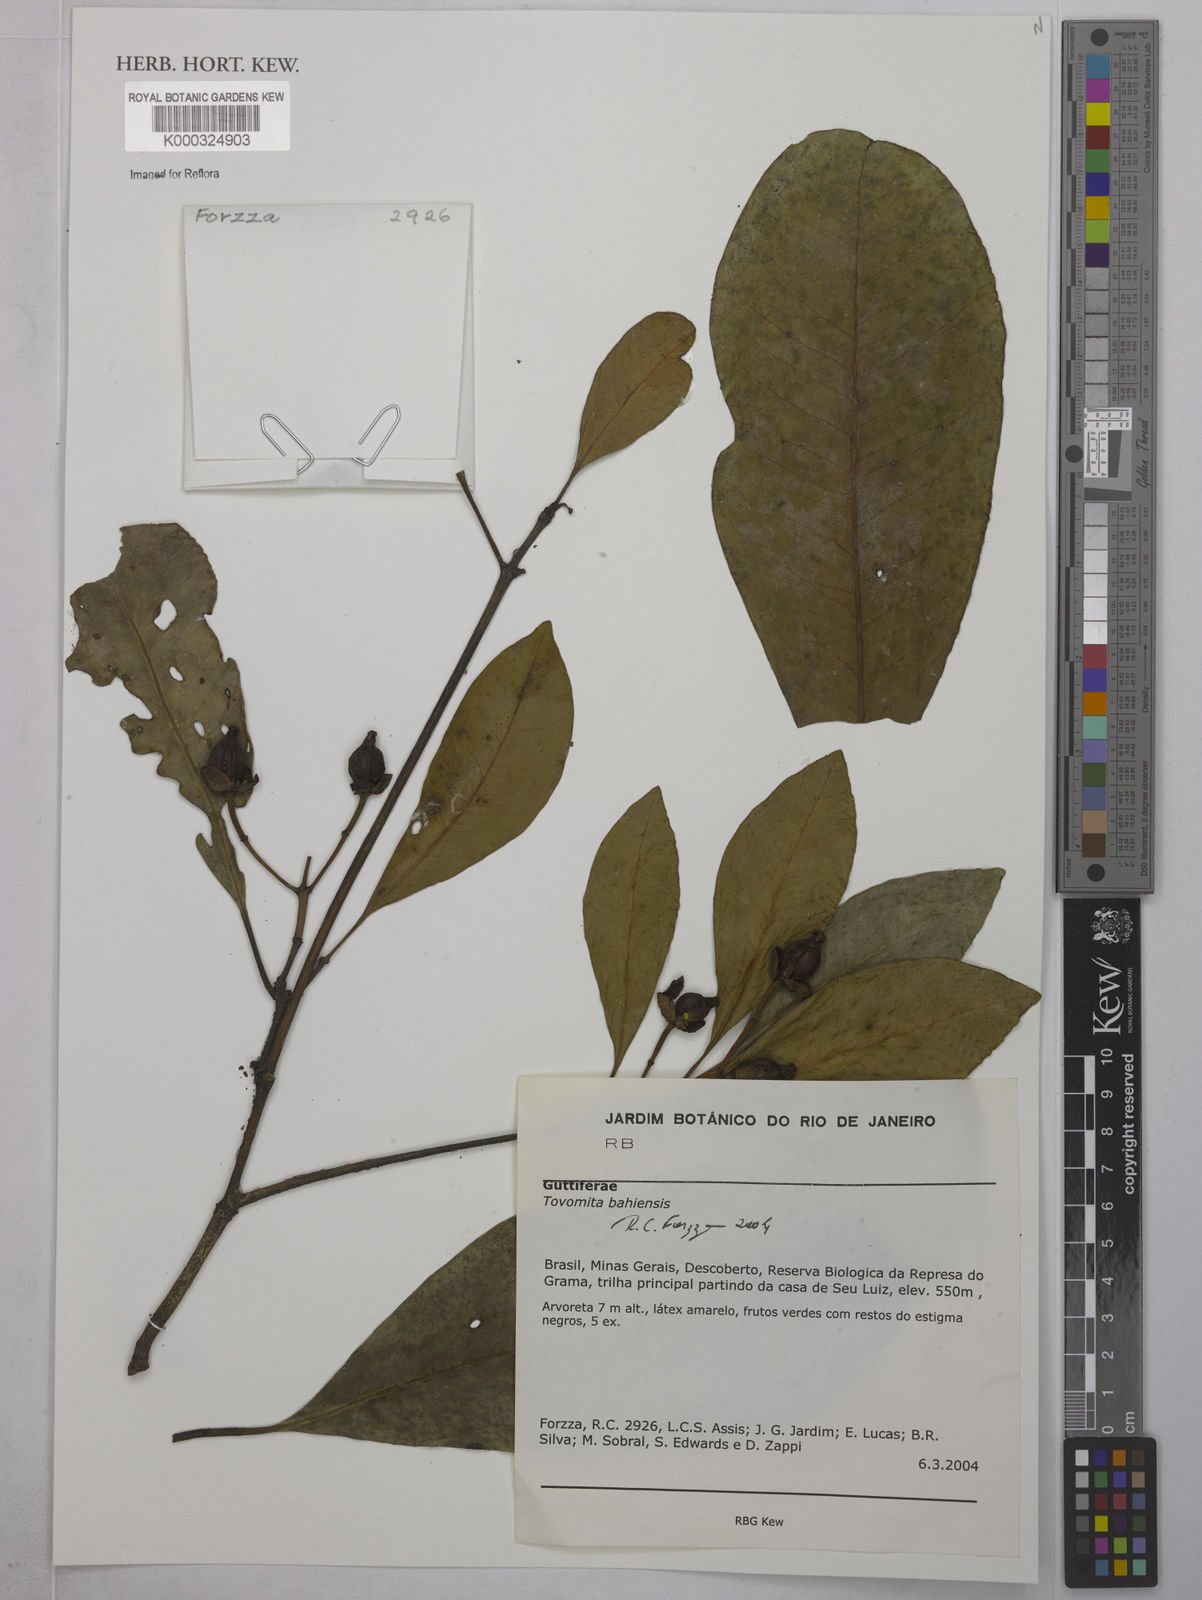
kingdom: Plantae
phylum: Tracheophyta
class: Magnoliopsida
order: Malpighiales
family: Clusiaceae
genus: Tovomita
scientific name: Tovomita salimenae
